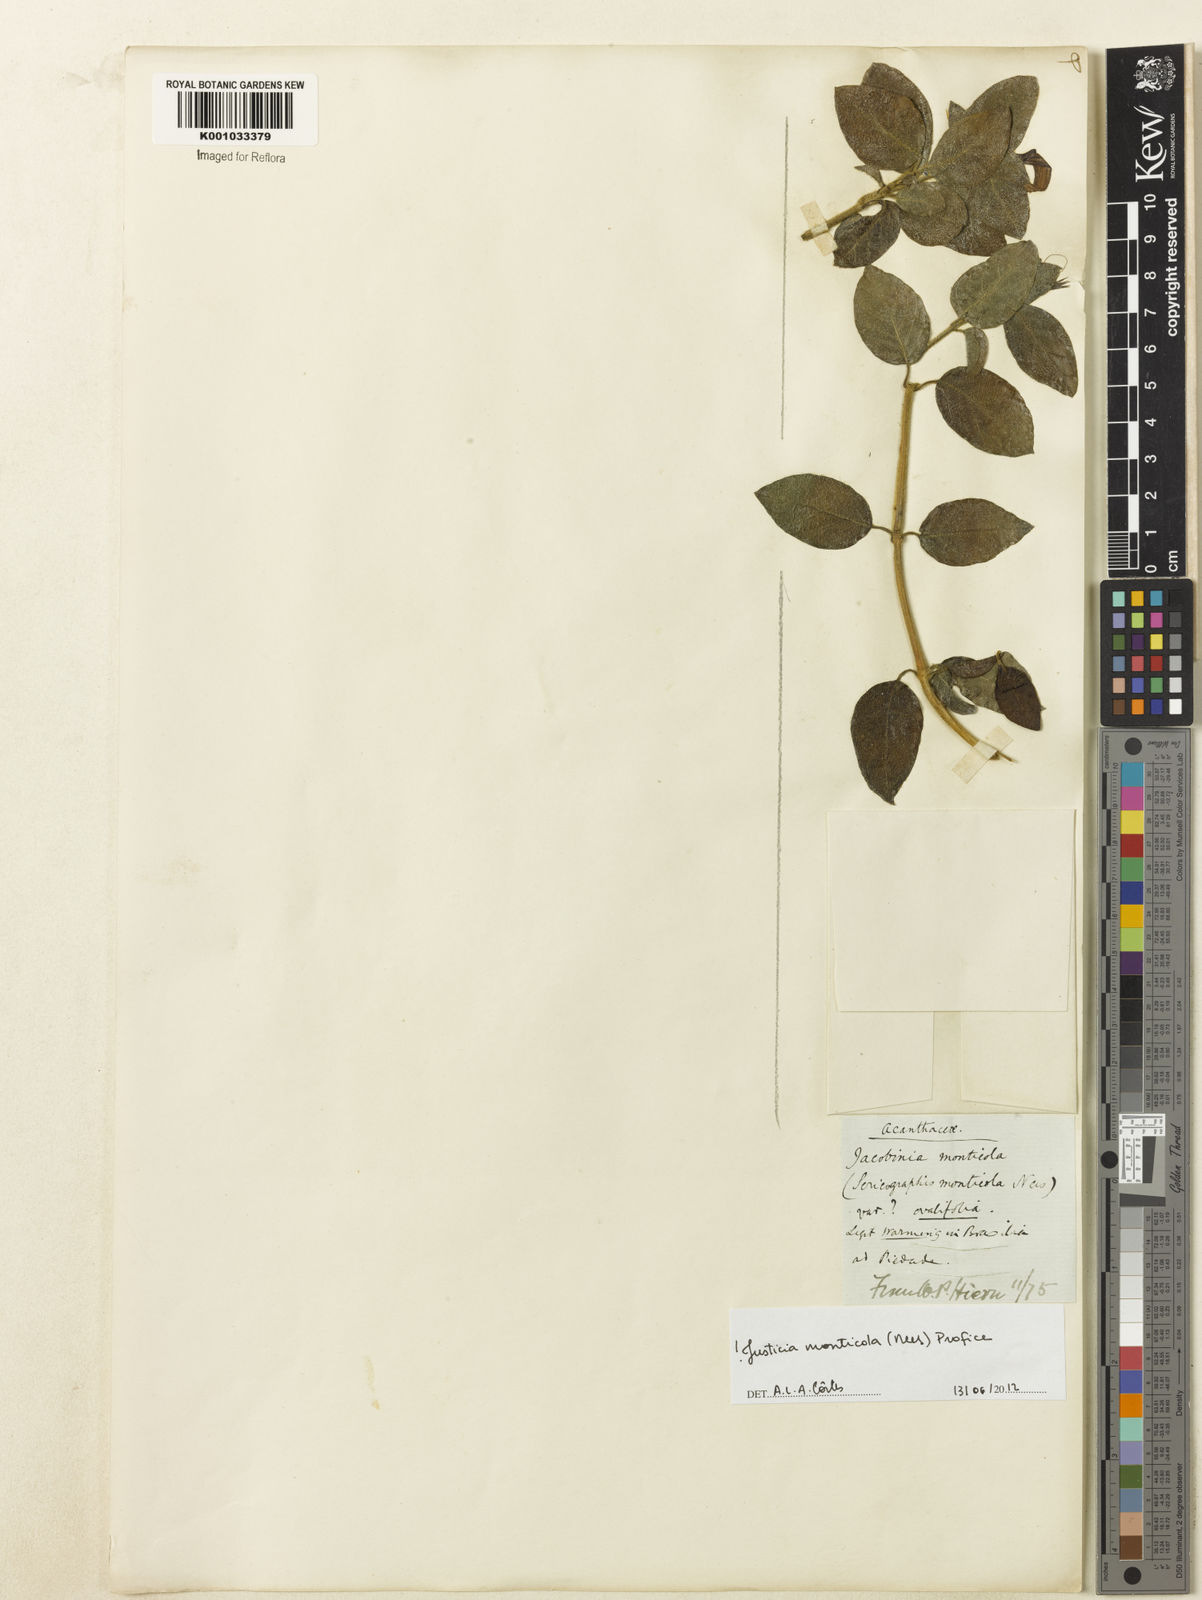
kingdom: Plantae
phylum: Tracheophyta
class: Magnoliopsida
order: Lamiales
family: Acanthaceae
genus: Justicia
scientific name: Justicia monticola
